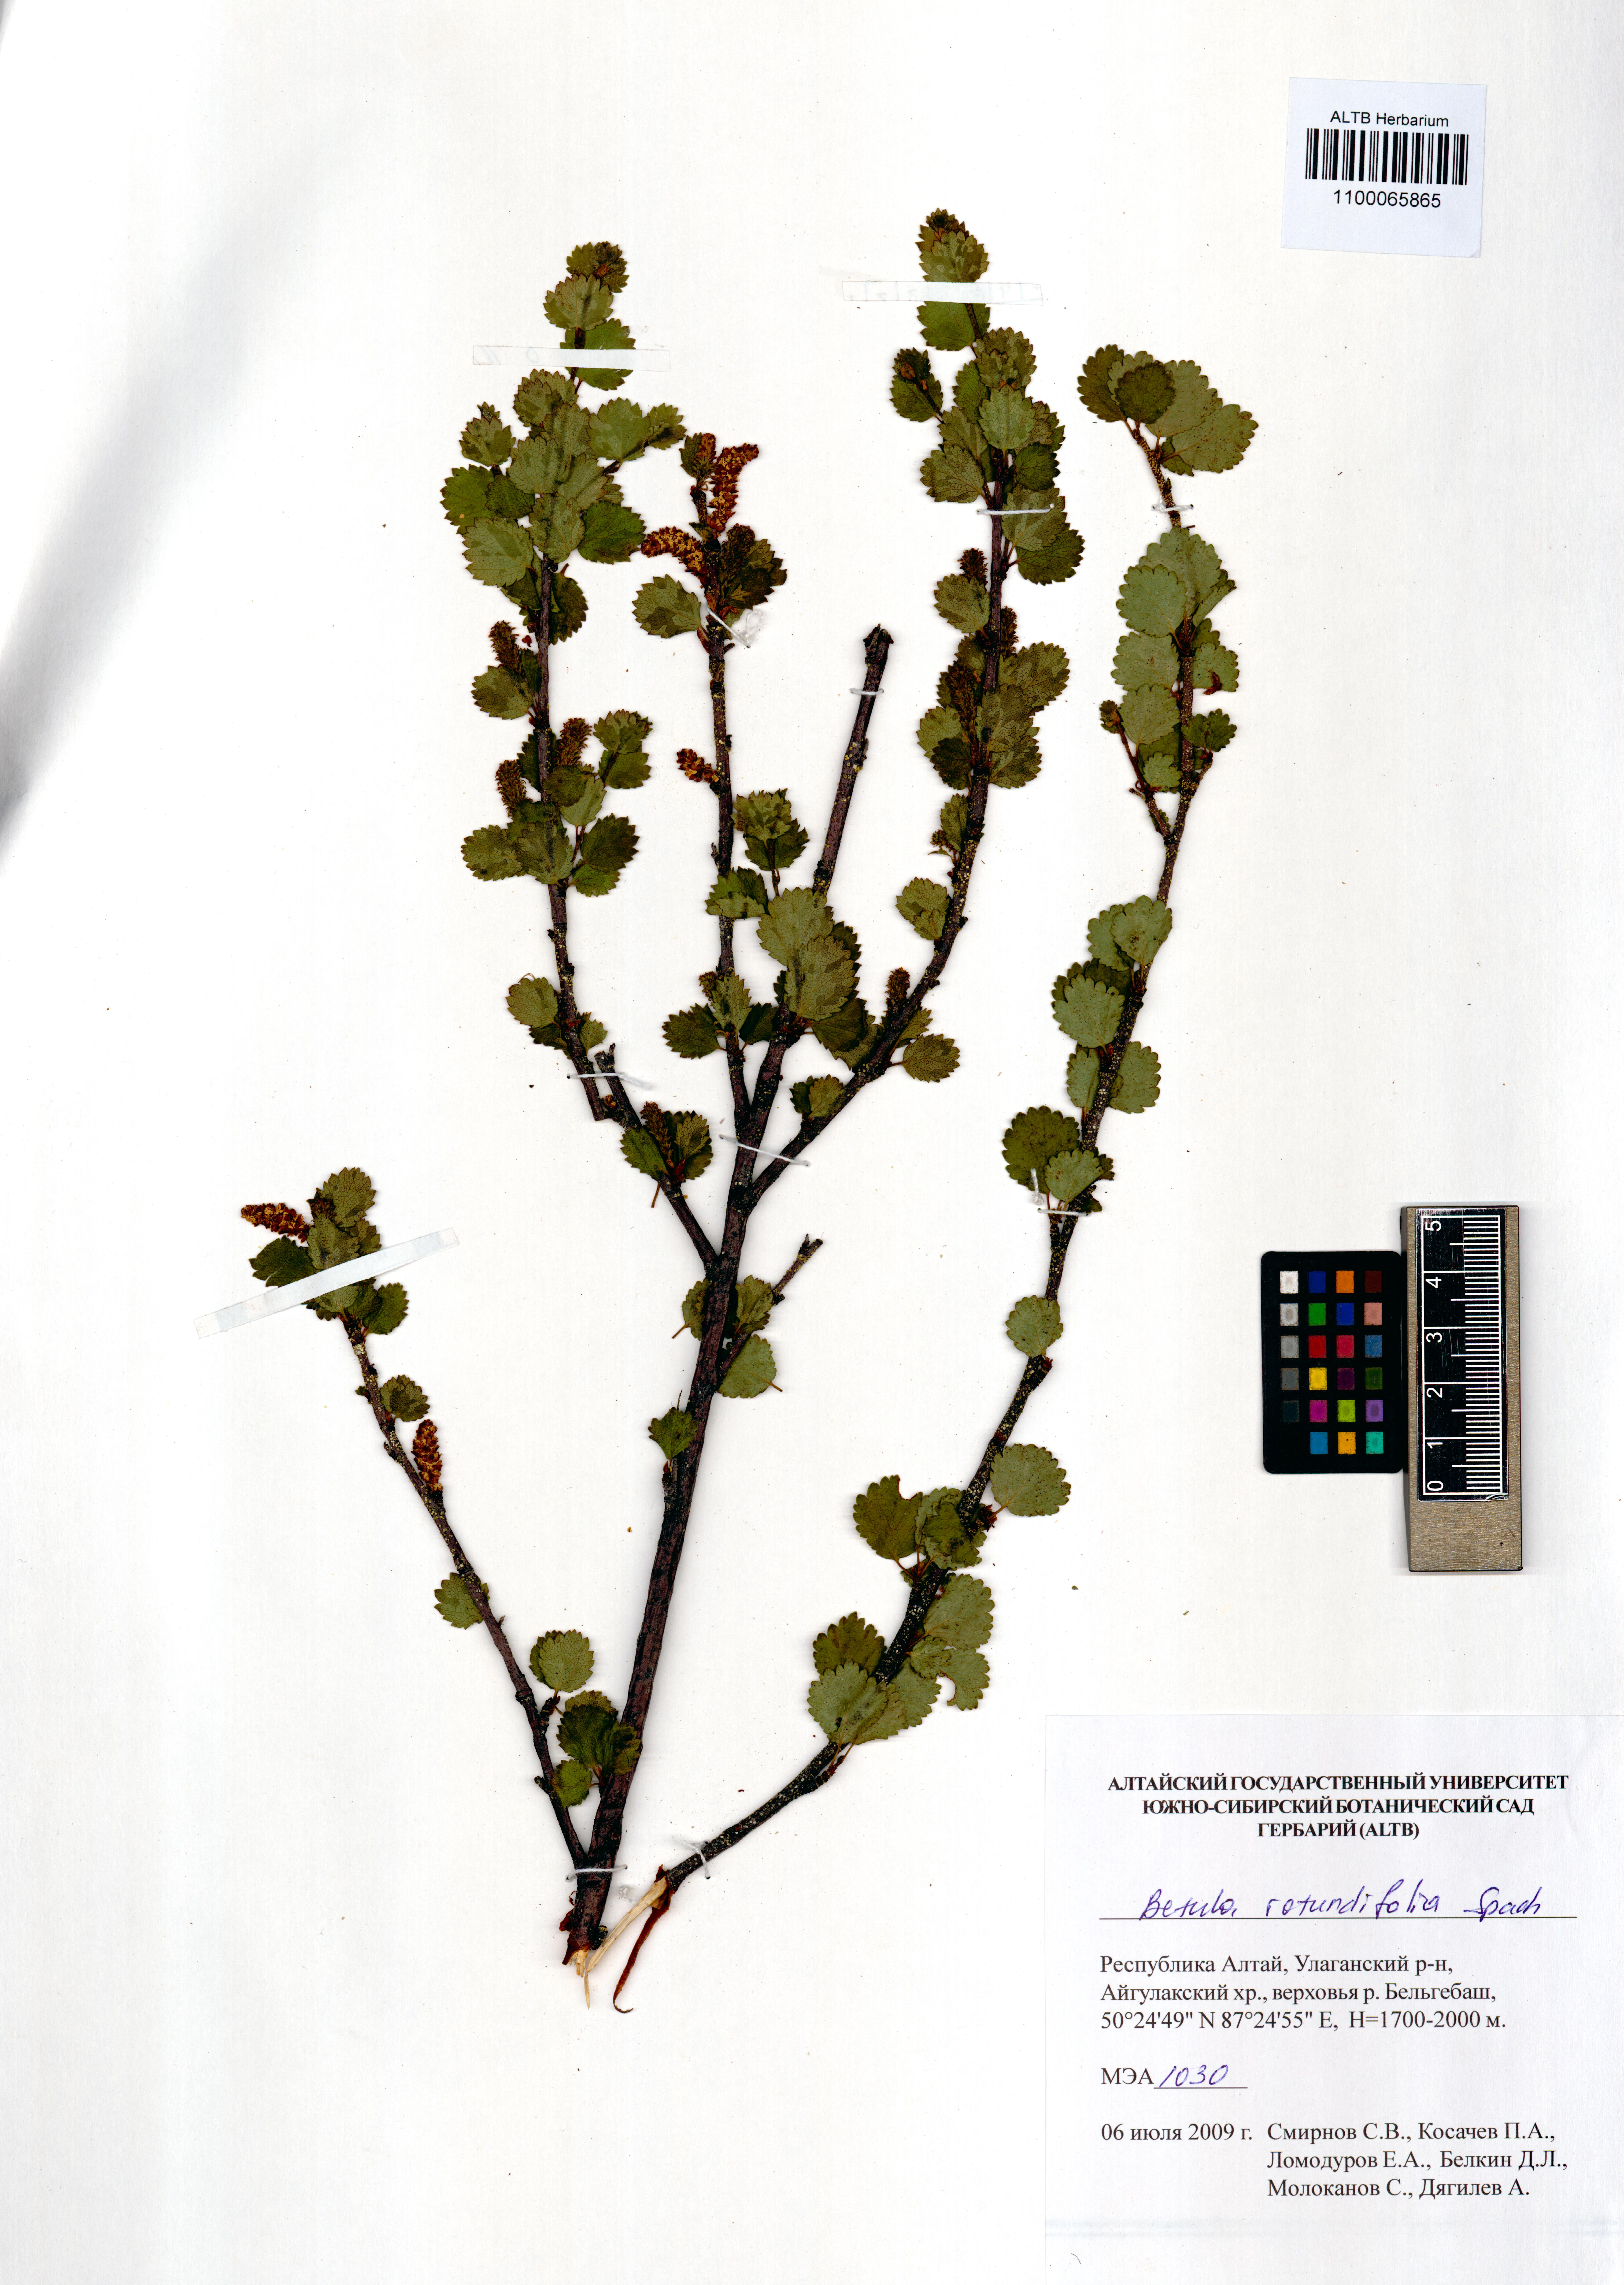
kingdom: Plantae
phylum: Tracheophyta
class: Magnoliopsida
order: Fagales
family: Betulaceae
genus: Betula
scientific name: Betula glandulosa
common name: Dwarf birch
